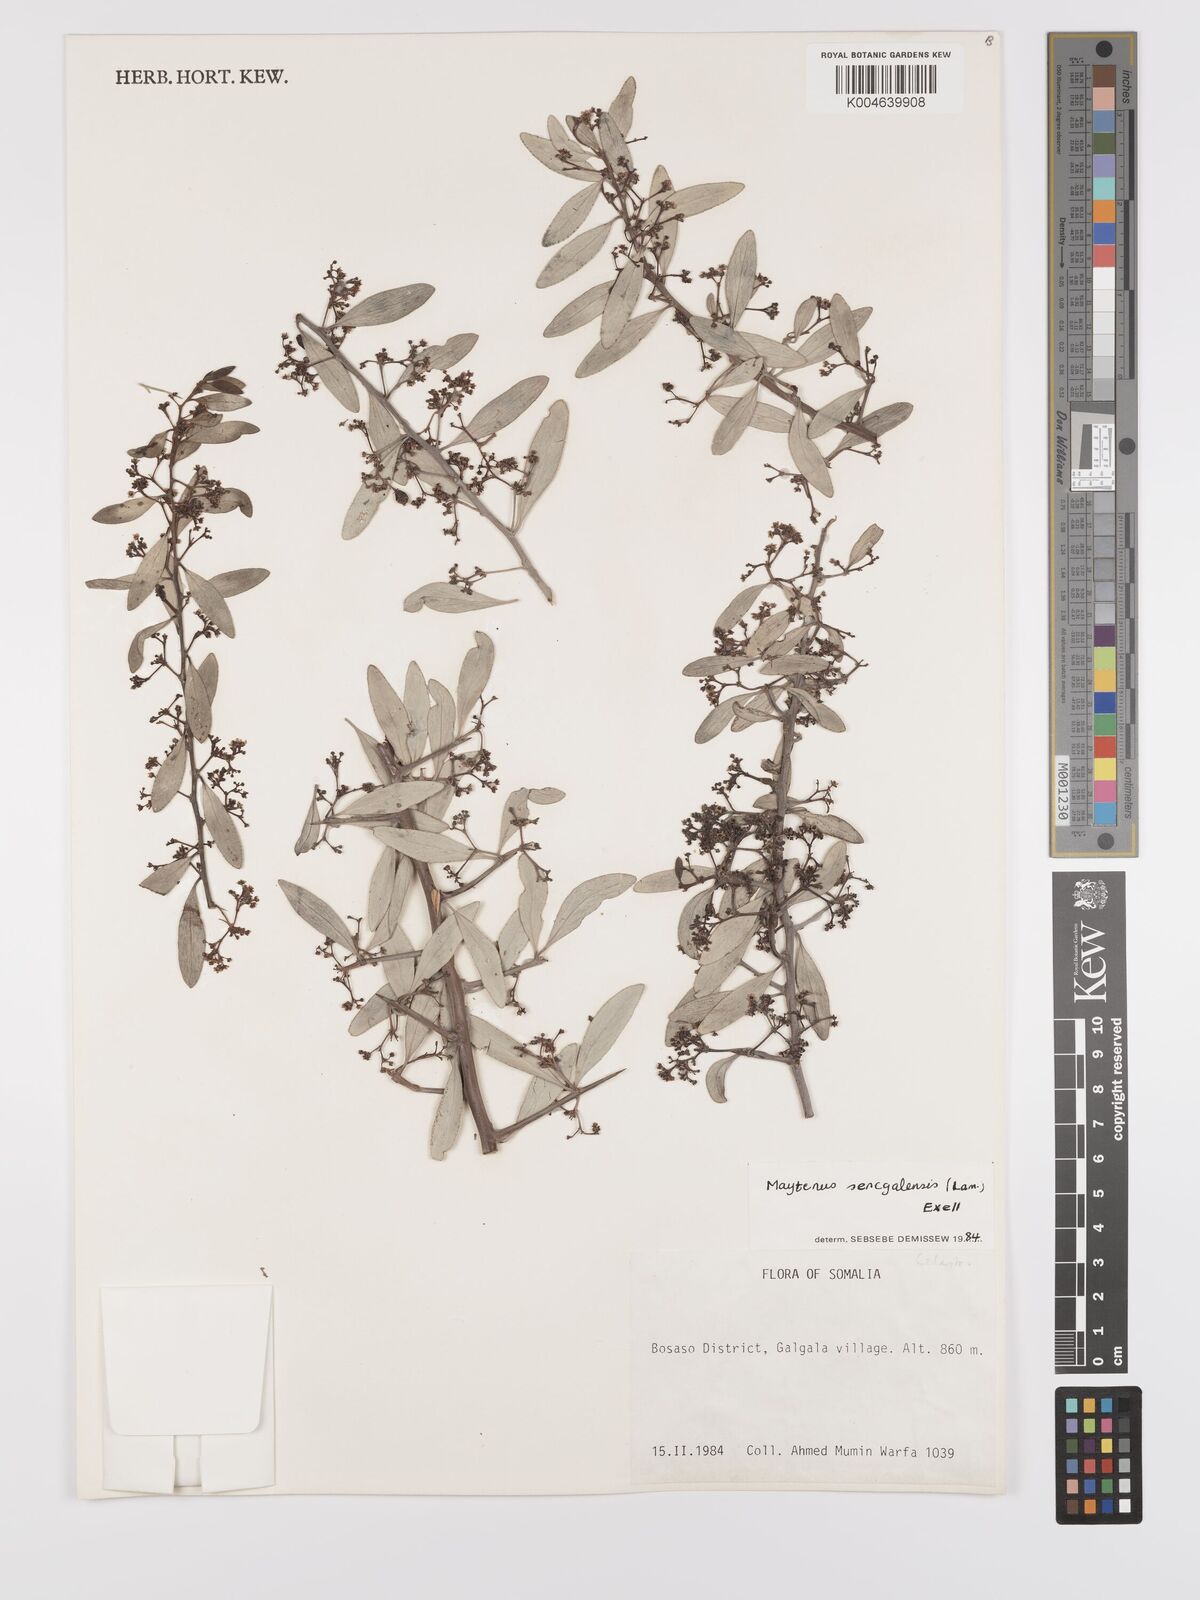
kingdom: Plantae
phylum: Tracheophyta
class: Magnoliopsida
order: Celastrales
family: Celastraceae
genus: Gymnosporia
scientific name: Gymnosporia senegalensis
